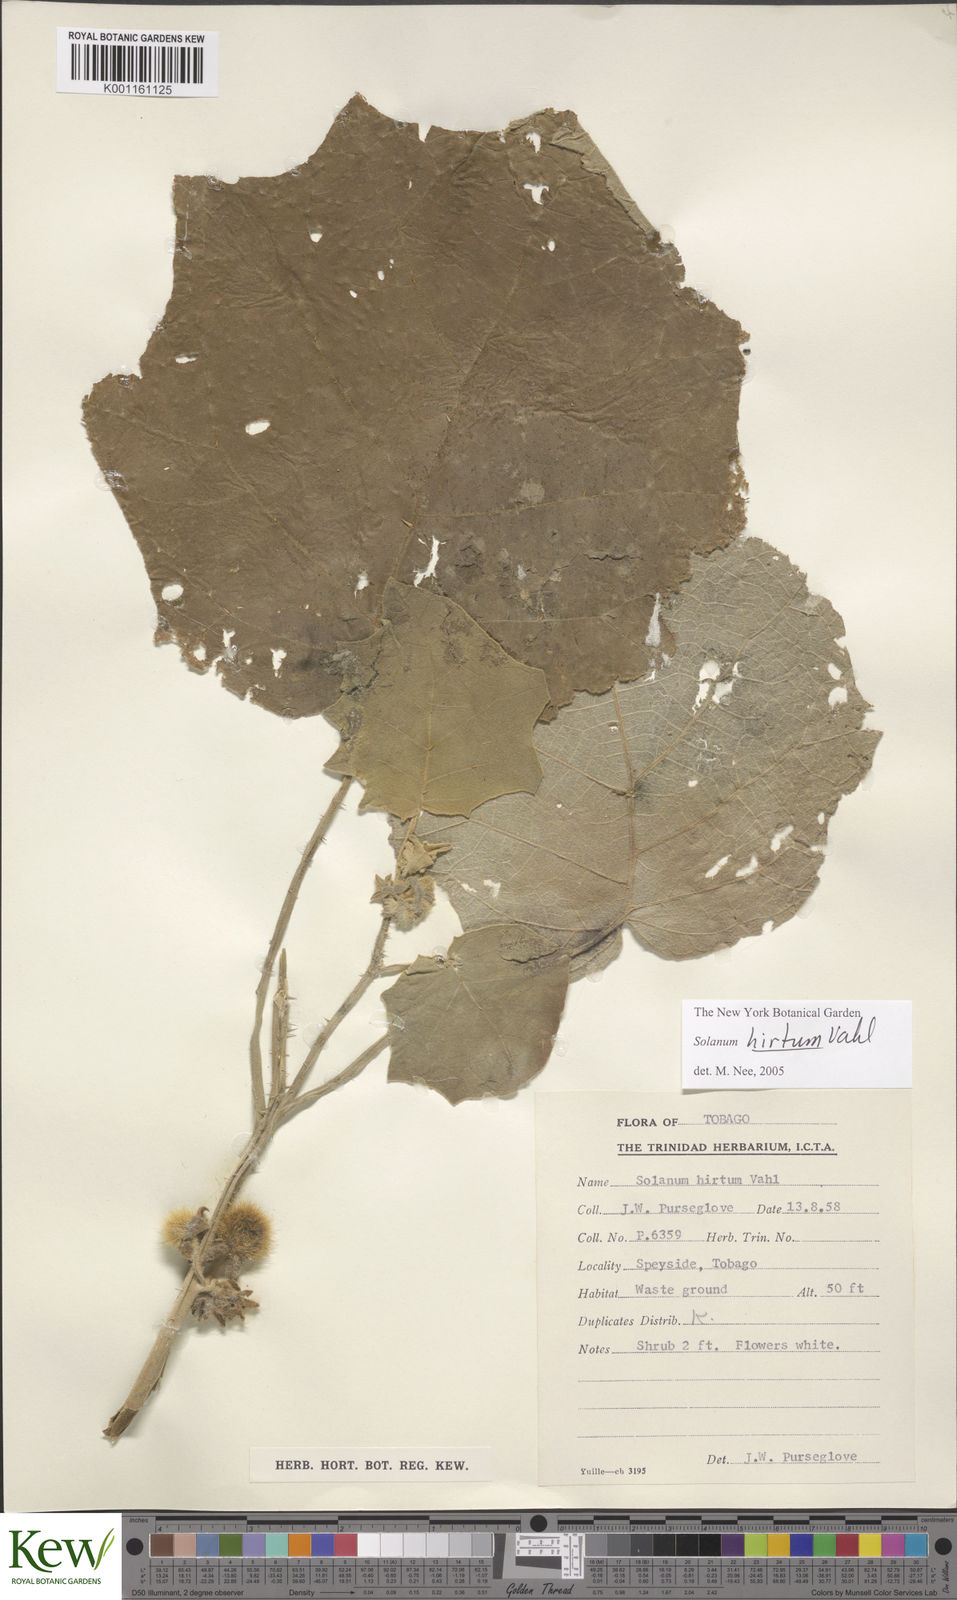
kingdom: Plantae
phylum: Tracheophyta
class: Magnoliopsida
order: Solanales
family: Solanaceae
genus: Solanum
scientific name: Solanum hirtum
